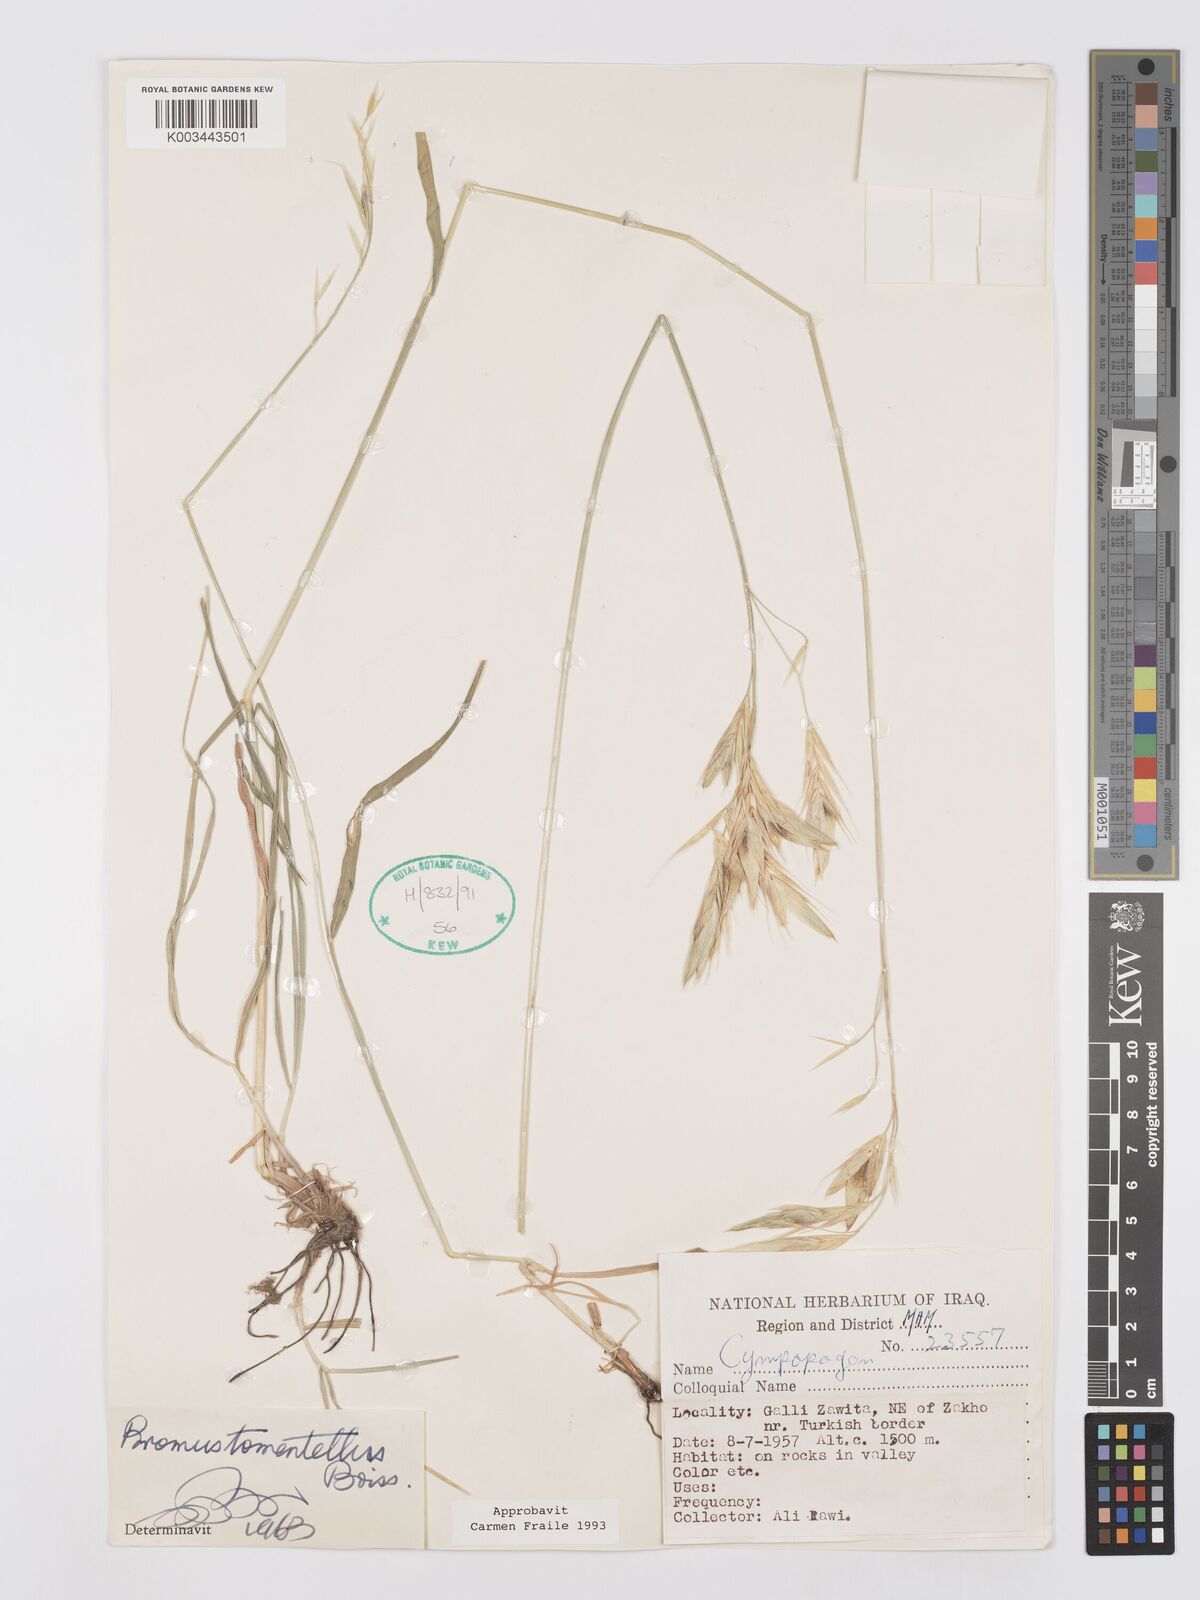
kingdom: Plantae
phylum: Tracheophyta
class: Liliopsida
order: Poales
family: Poaceae
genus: Bromus
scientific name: Bromus tomentellus
